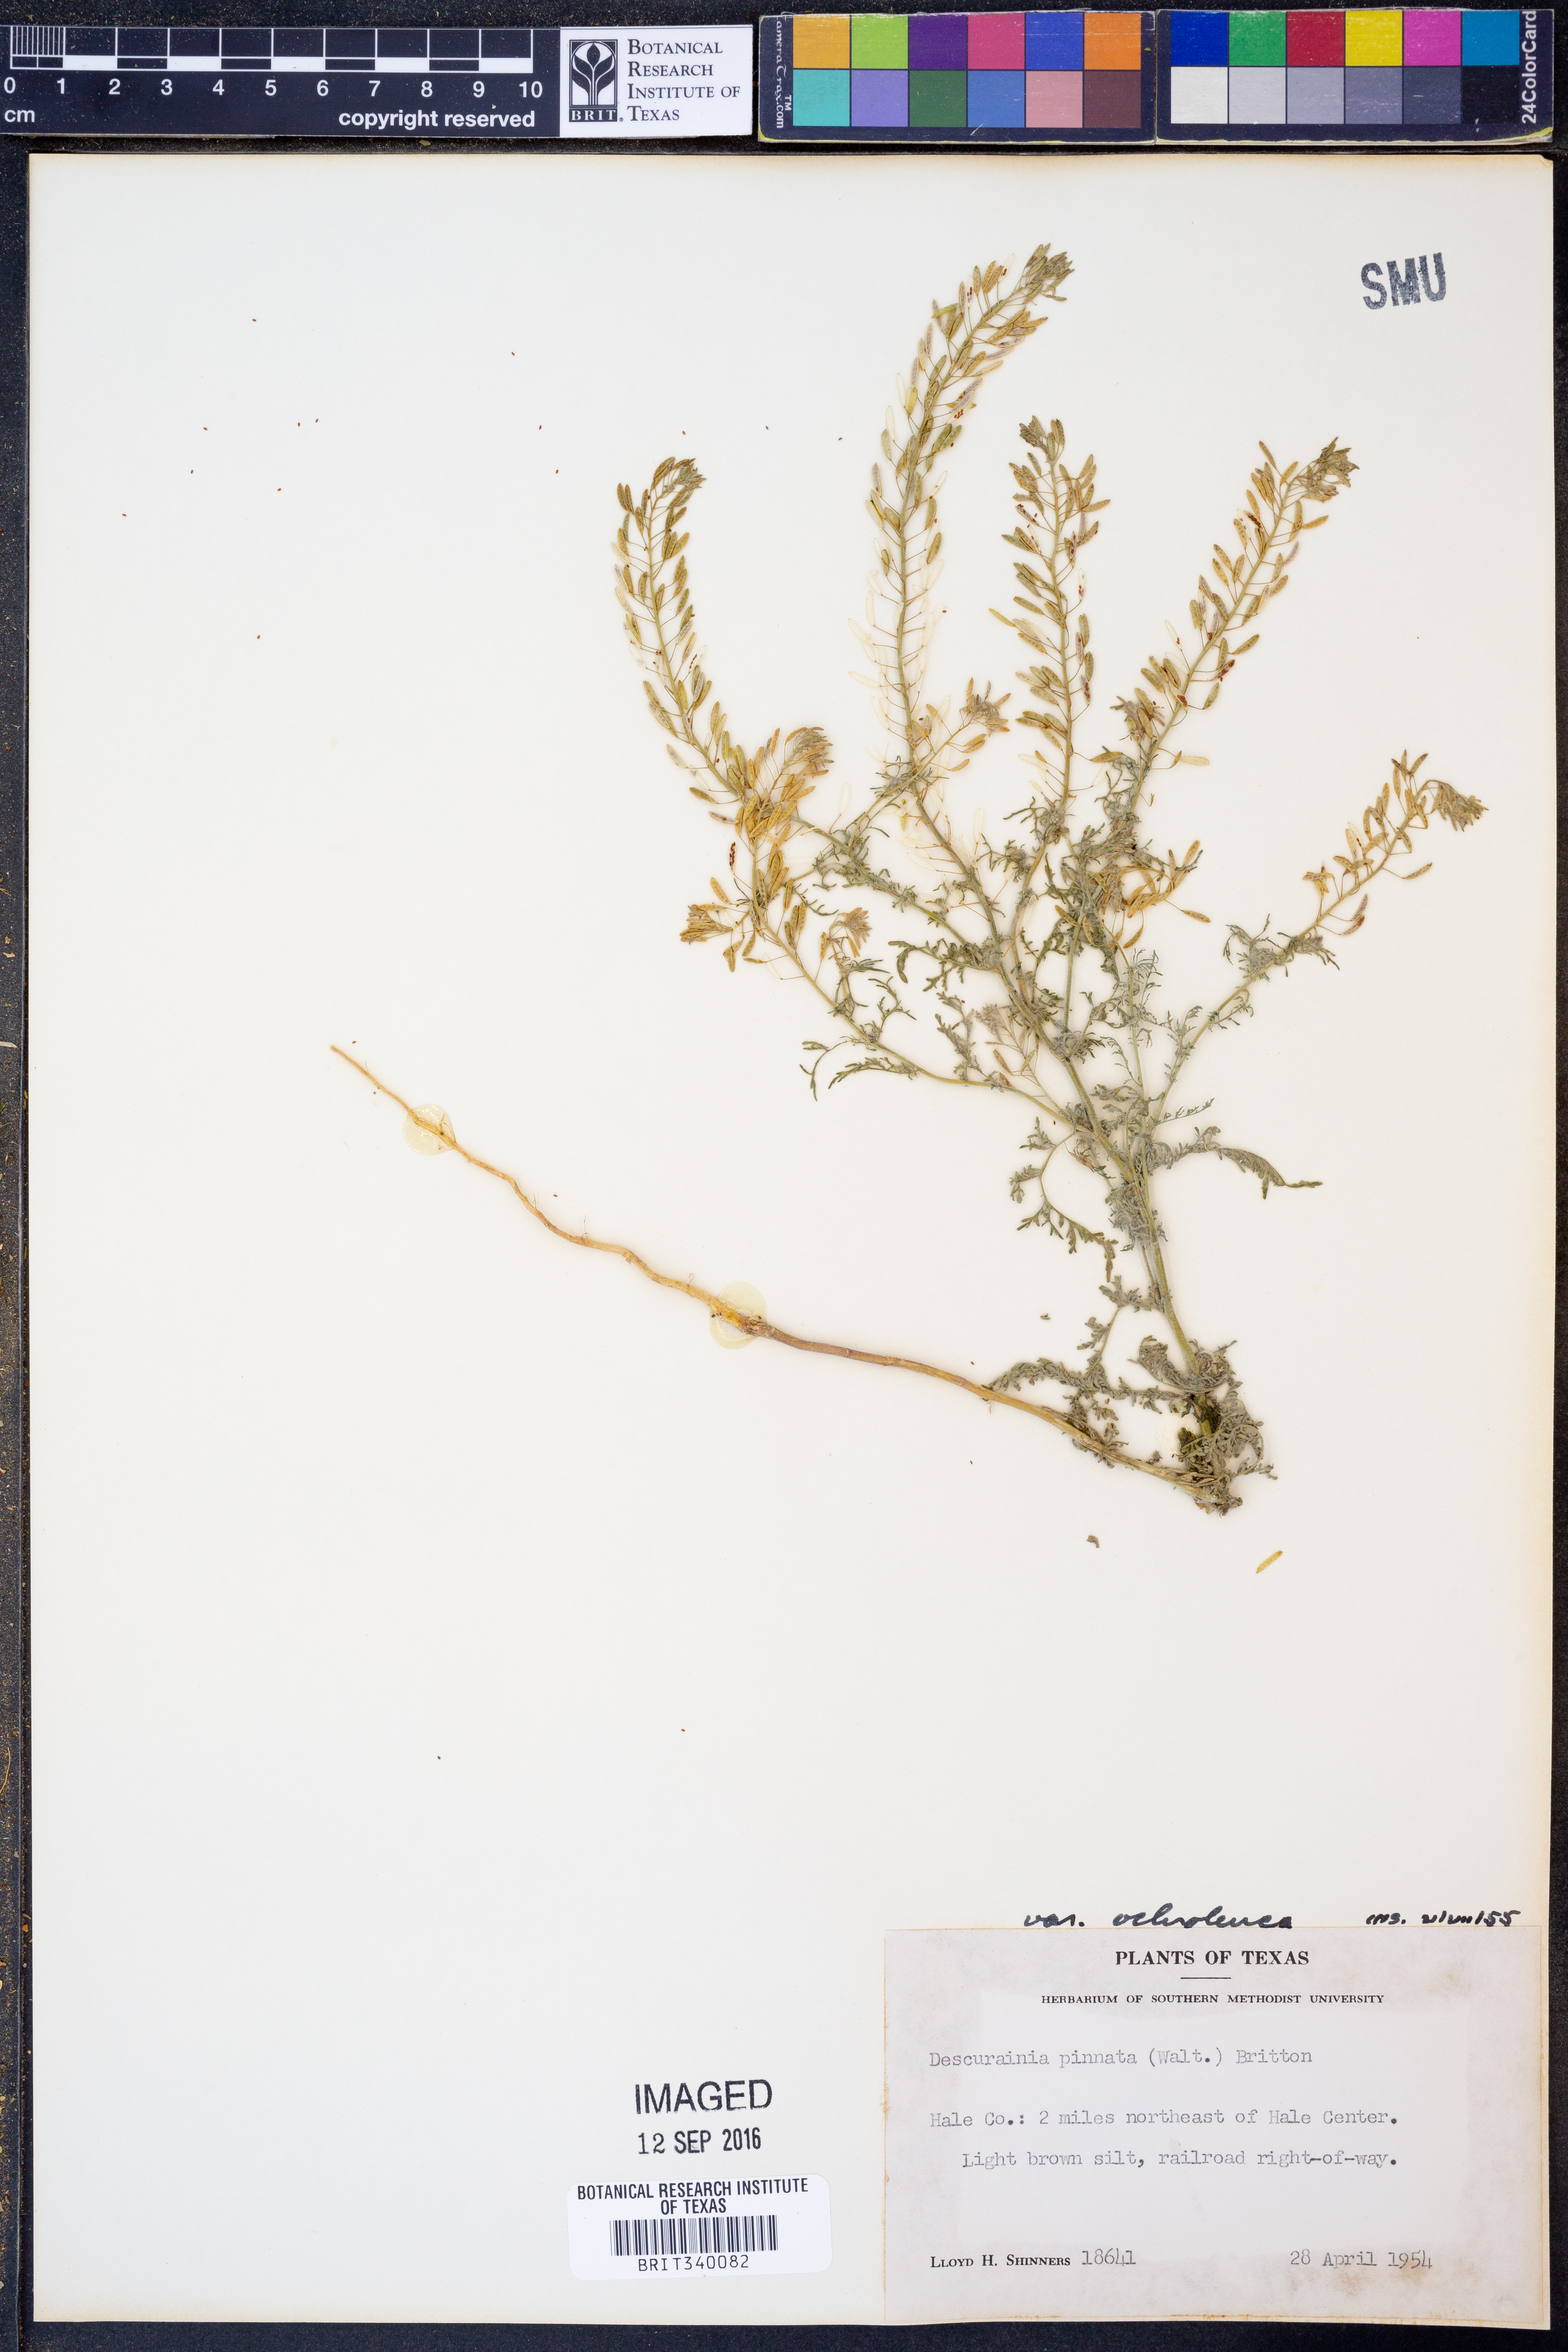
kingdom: Plantae
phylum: Tracheophyta
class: Magnoliopsida
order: Brassicales
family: Brassicaceae
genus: Descurainia
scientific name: Descurainia pinnata
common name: Western tansy mustard
